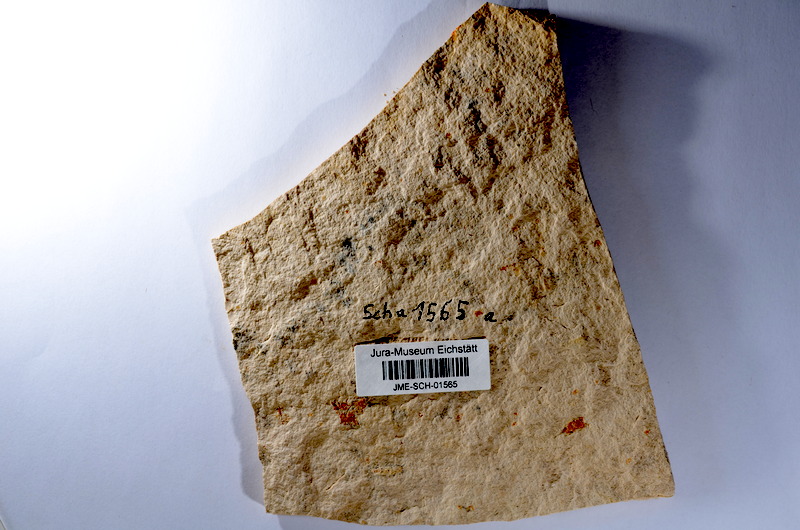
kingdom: Animalia
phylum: Chordata
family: Ascalaboidae
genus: Tharsis
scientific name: Tharsis dubius
